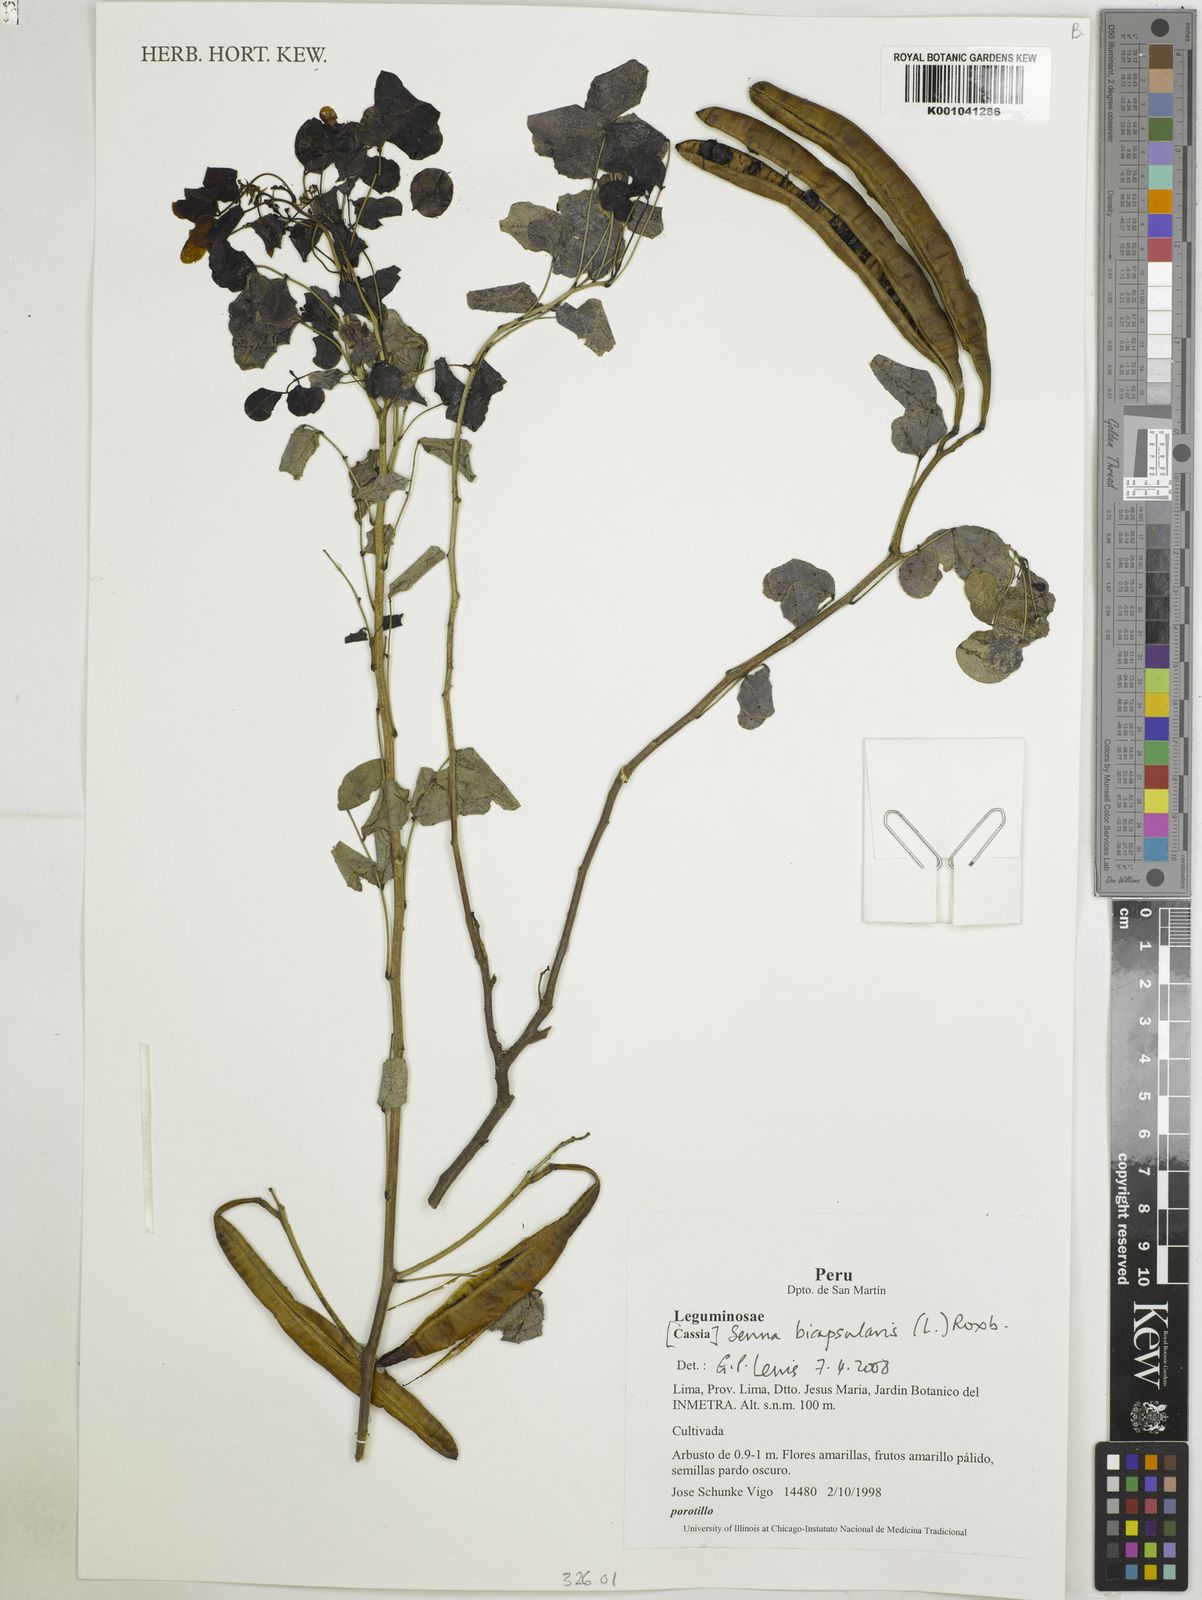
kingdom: Plantae
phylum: Tracheophyta
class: Magnoliopsida
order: Fabales
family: Fabaceae
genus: Senna
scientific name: Senna bicapsularis
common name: Christmasbush
